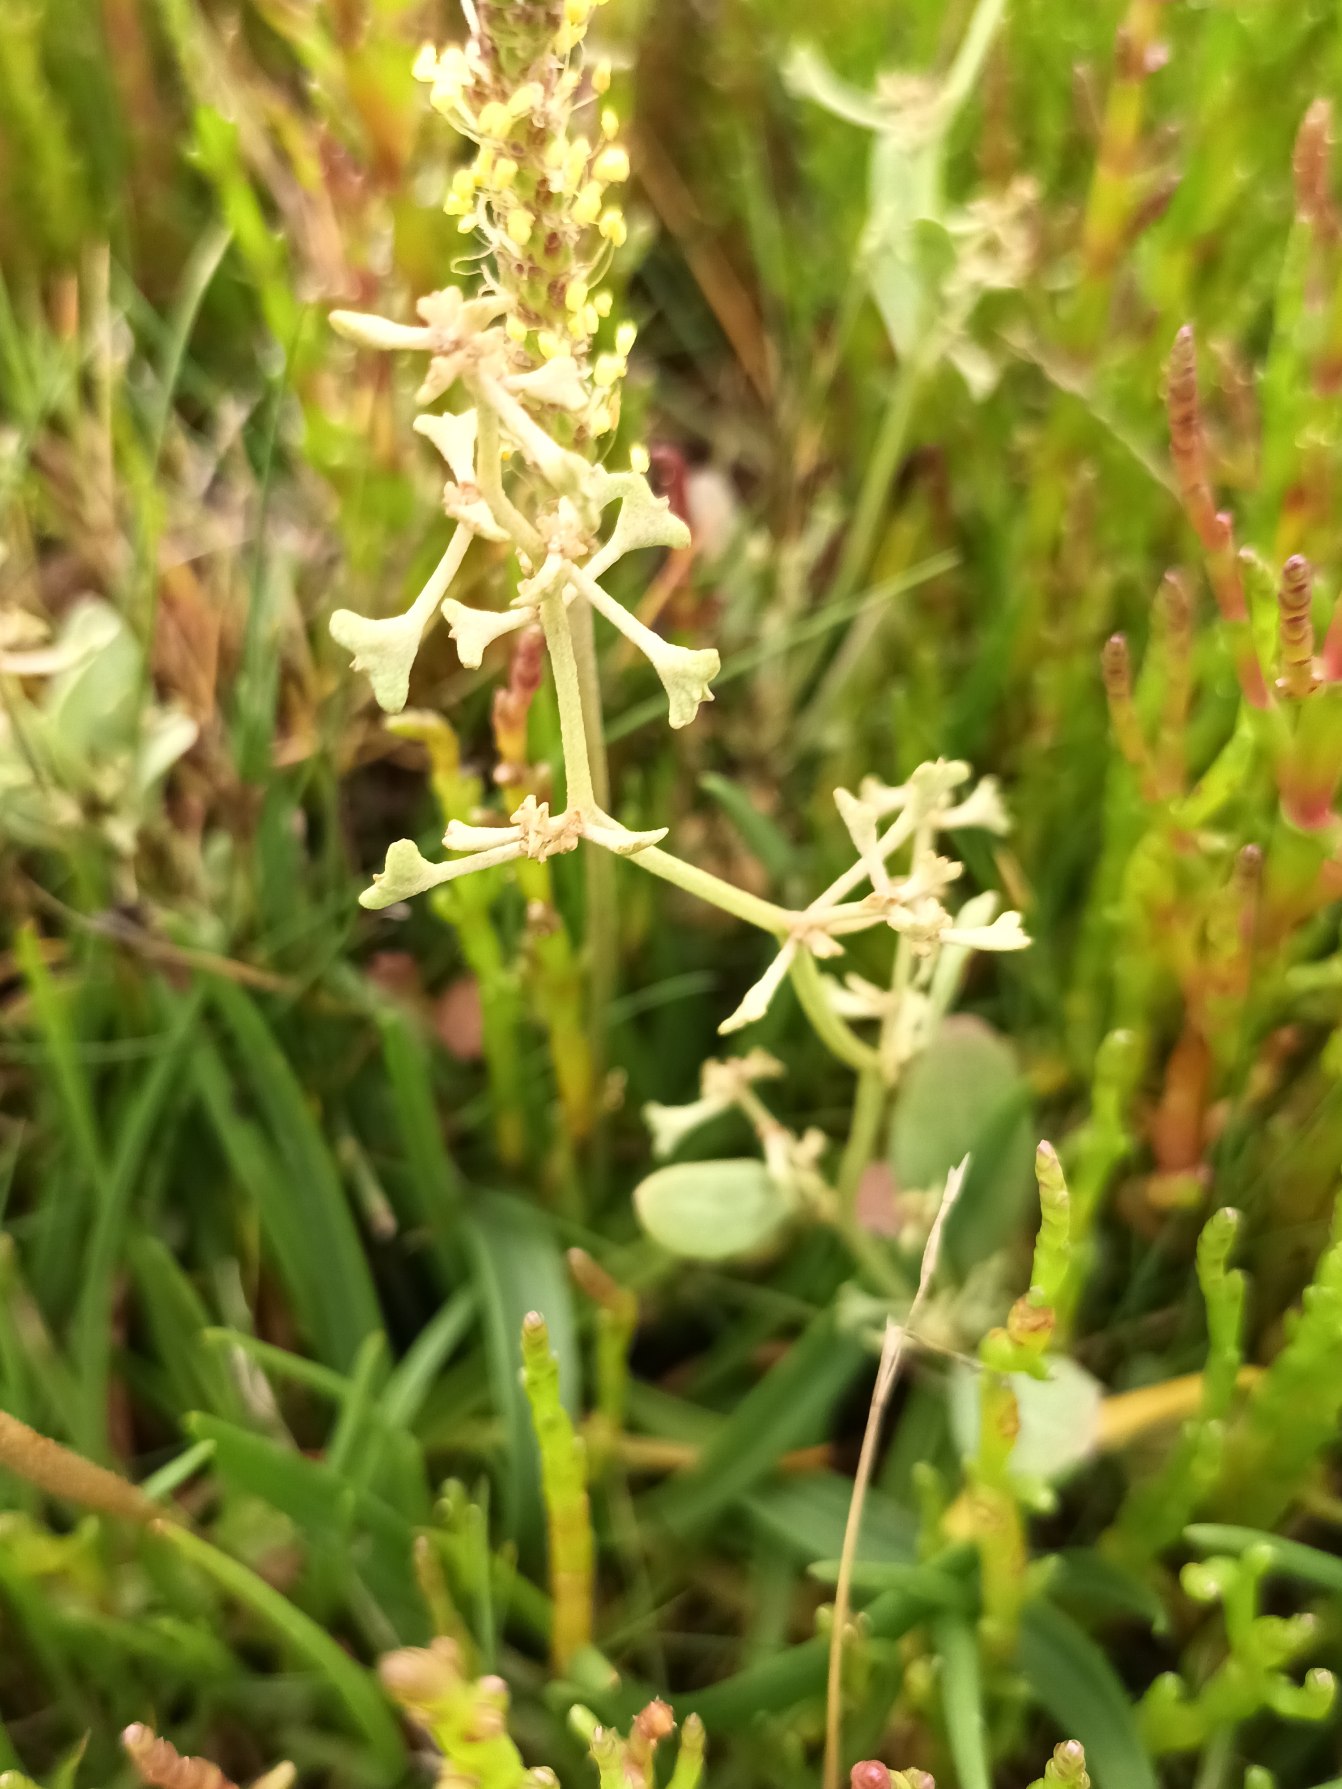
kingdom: Plantae
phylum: Tracheophyta
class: Magnoliopsida
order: Caryophyllales
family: Amaranthaceae
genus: Halimione
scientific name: Halimione pedunculata
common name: Stilket kilebæger
